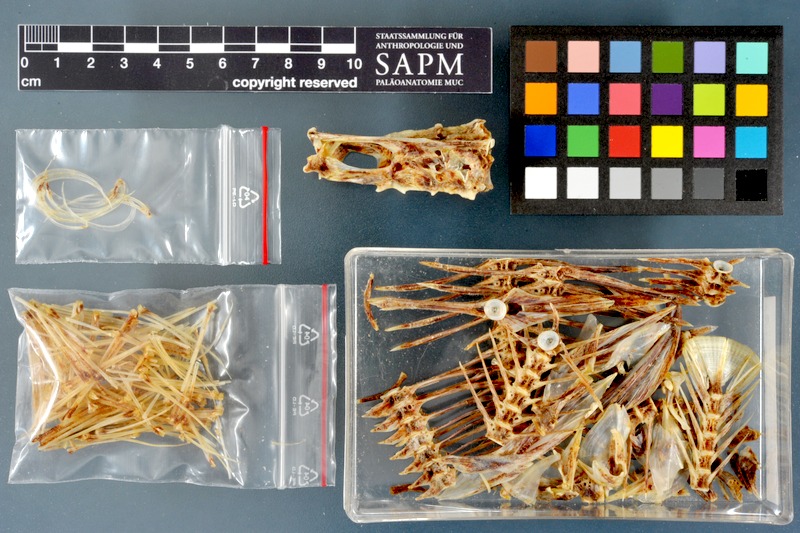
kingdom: Animalia
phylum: Chordata
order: Pleuronectiformes
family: Pleuronectidae
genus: Platichthys
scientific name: Platichthys flesus
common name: European flounder
